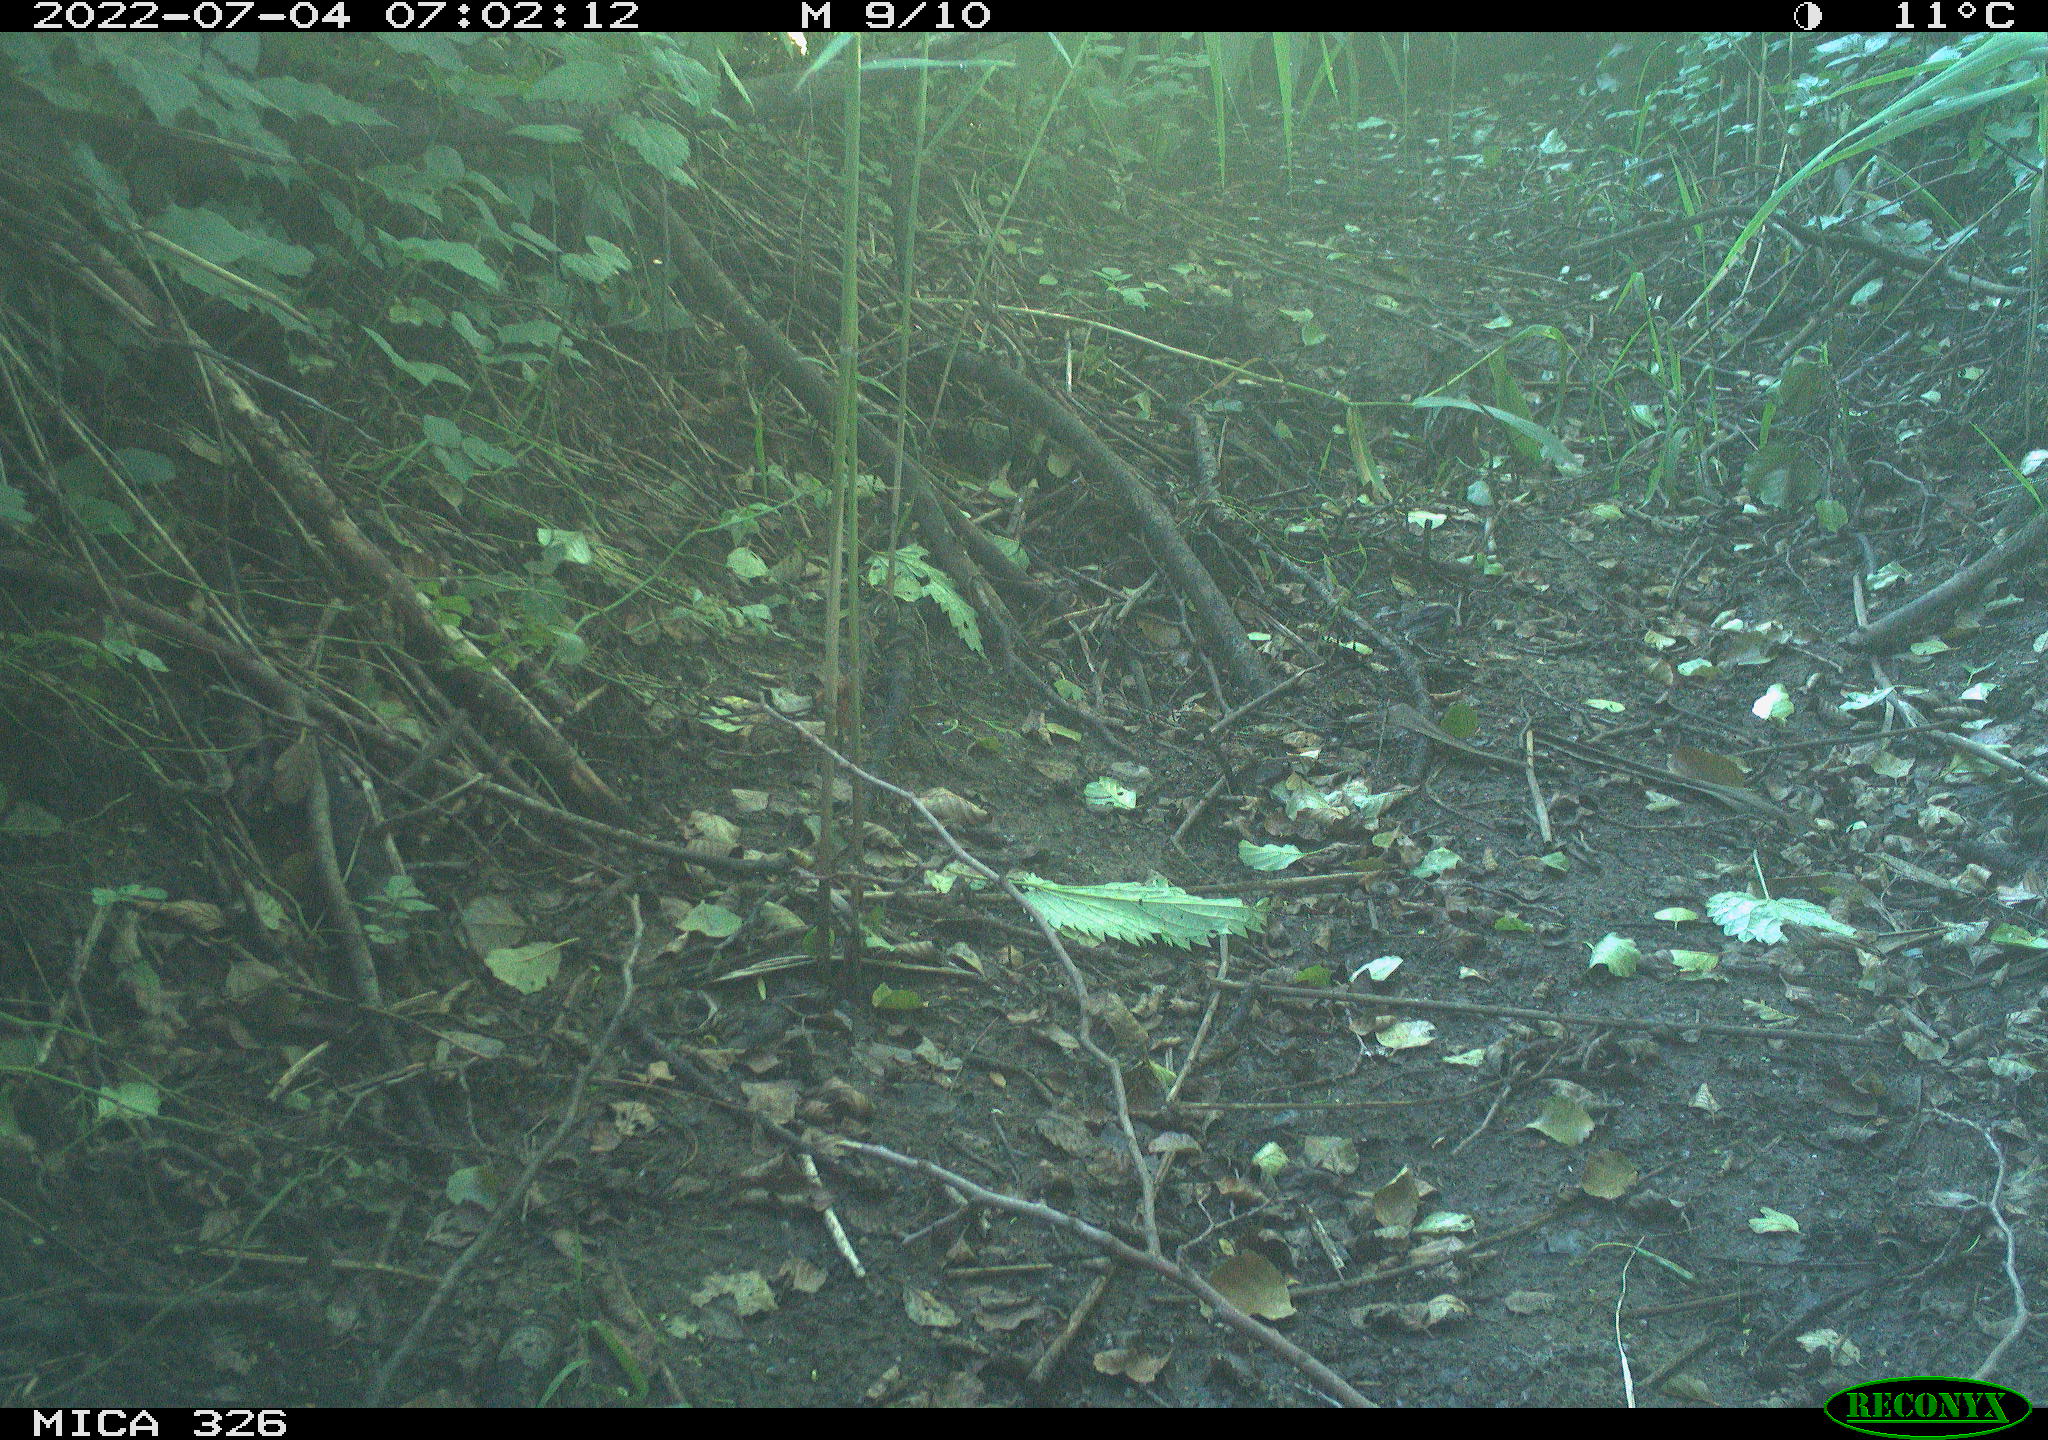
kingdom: Animalia
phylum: Chordata
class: Aves
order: Passeriformes
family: Turdidae
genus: Turdus
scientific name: Turdus philomelos
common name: Song thrush
